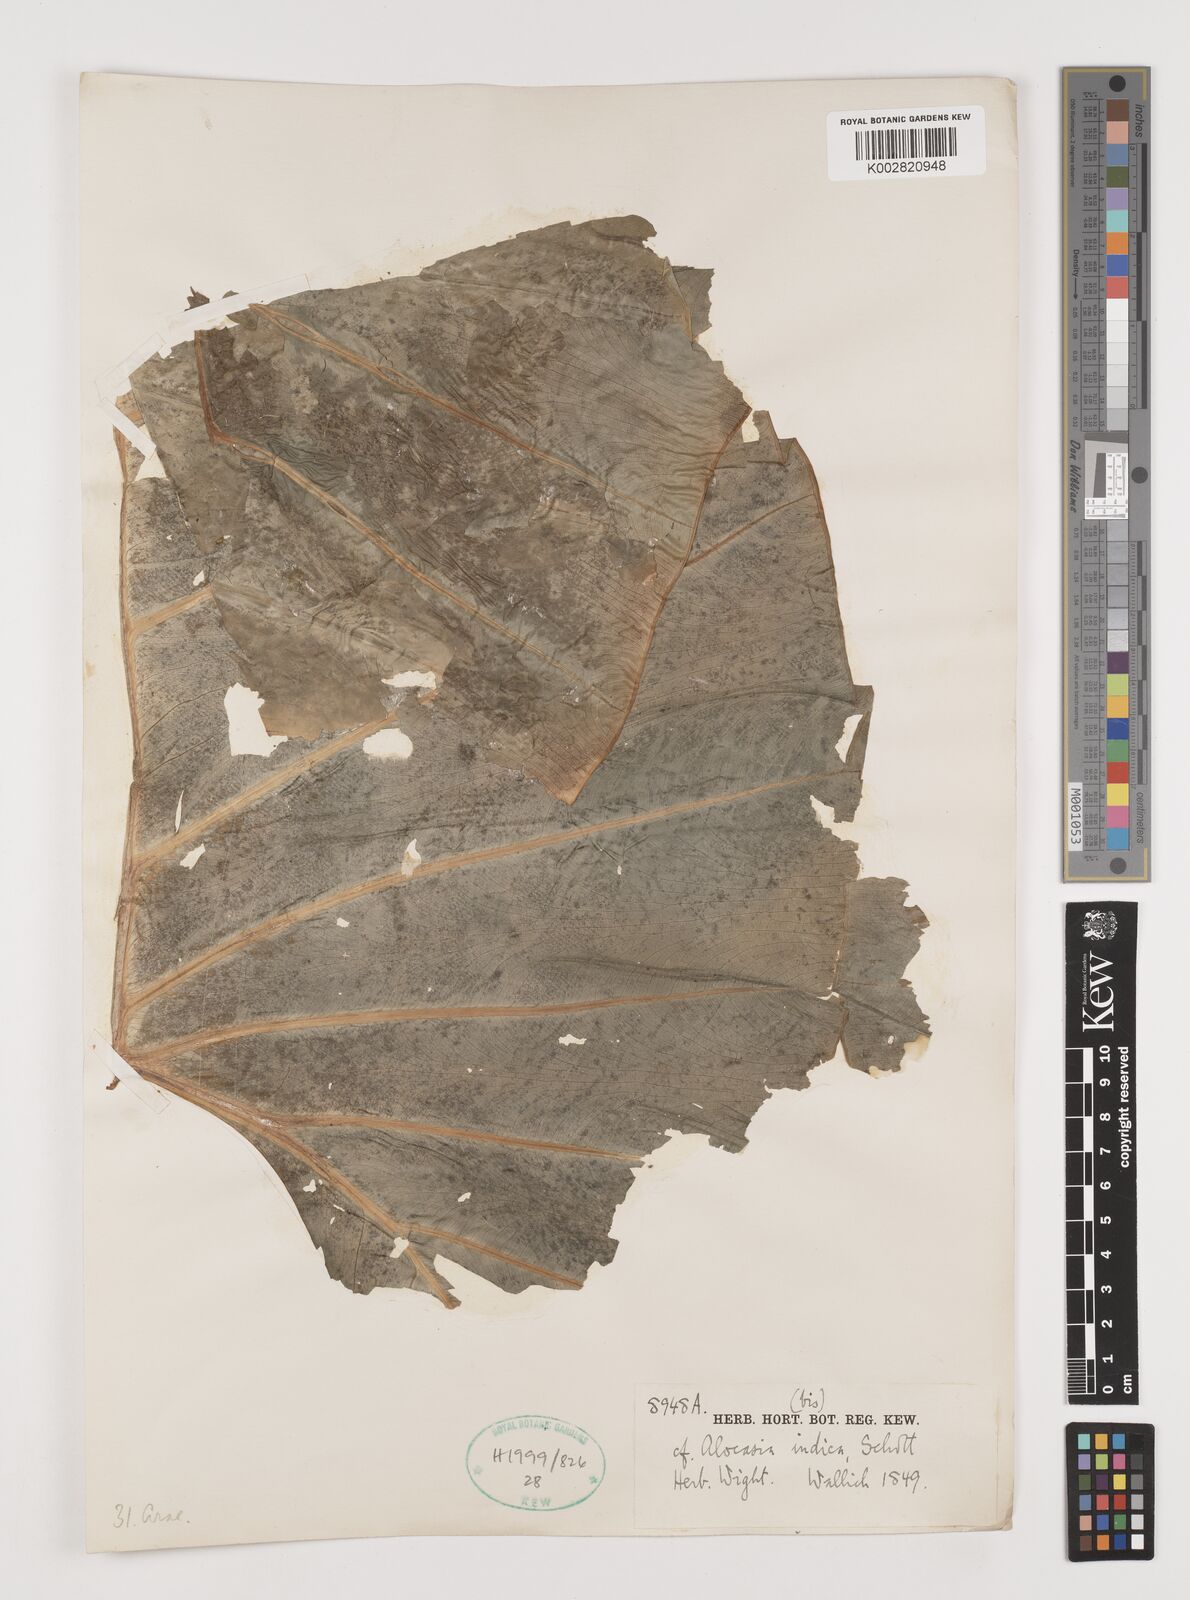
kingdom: Plantae
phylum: Tracheophyta
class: Liliopsida
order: Alismatales
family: Araceae
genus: Alocasia
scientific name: Alocasia macrorrhizos
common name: Giant taro
